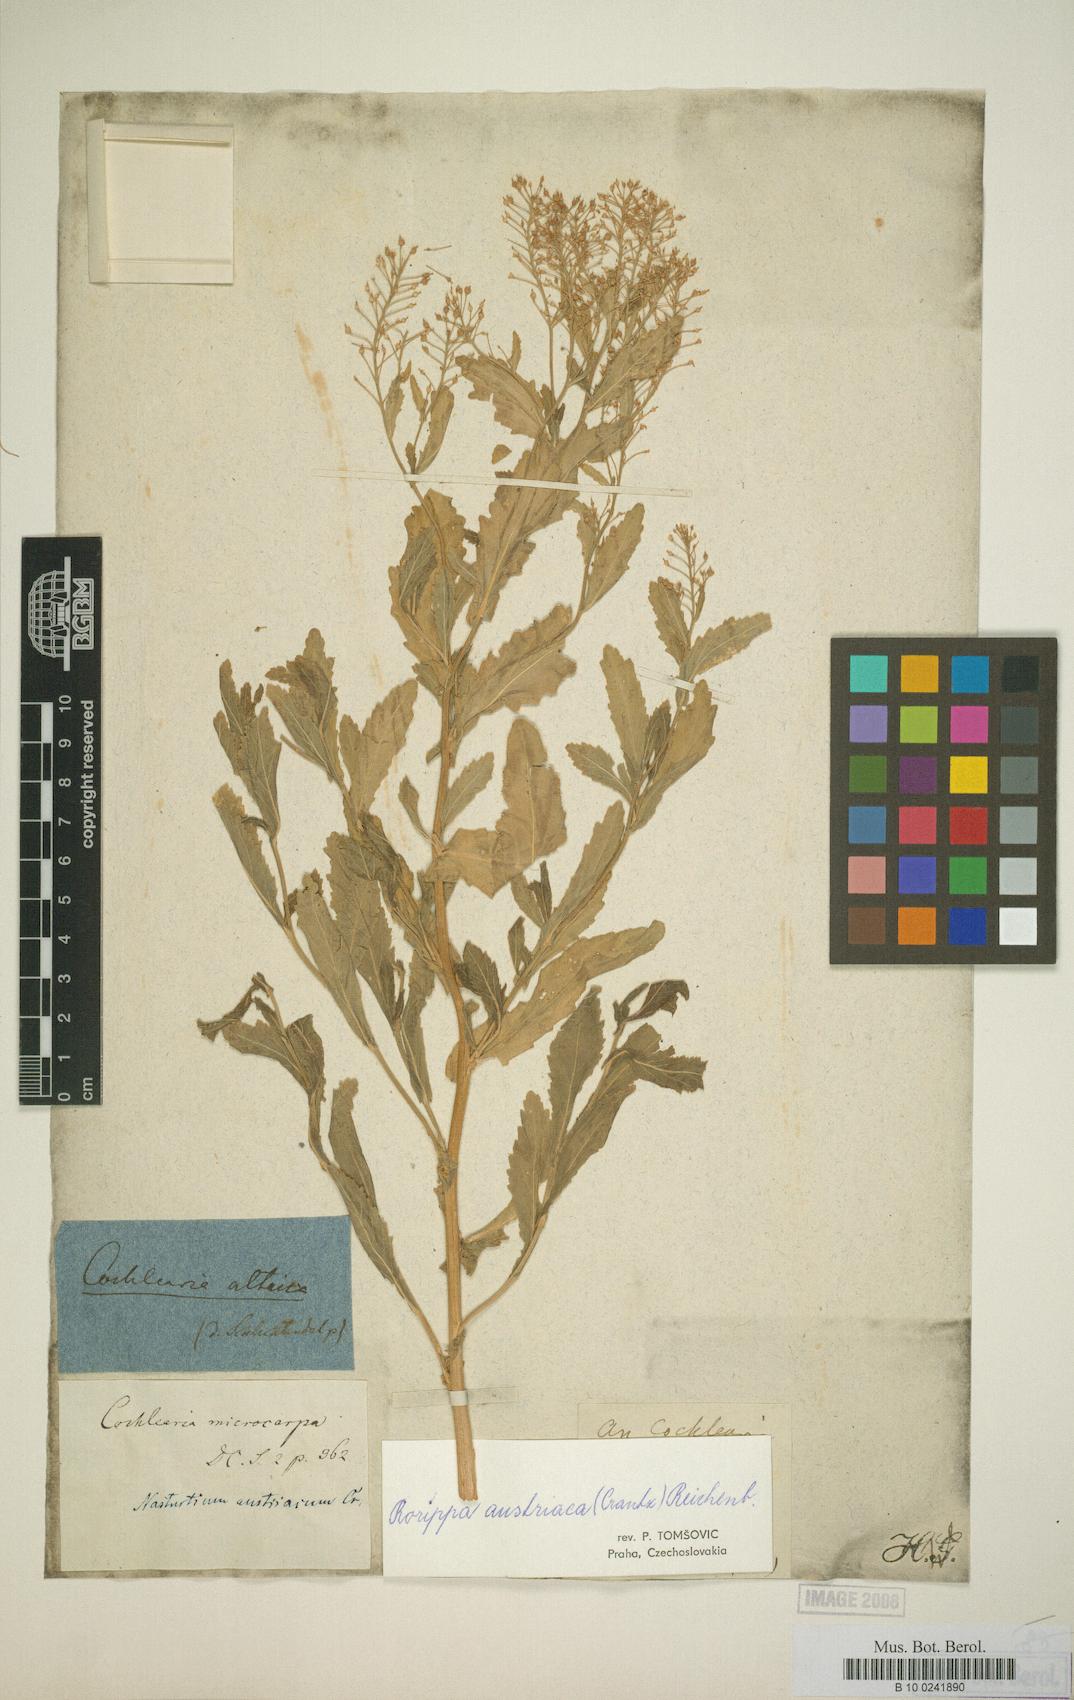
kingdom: Plantae
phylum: Tracheophyta
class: Magnoliopsida
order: Brassicales
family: Brassicaceae
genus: Rorippa
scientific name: Rorippa austriaca
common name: Austrian yellow-cress
